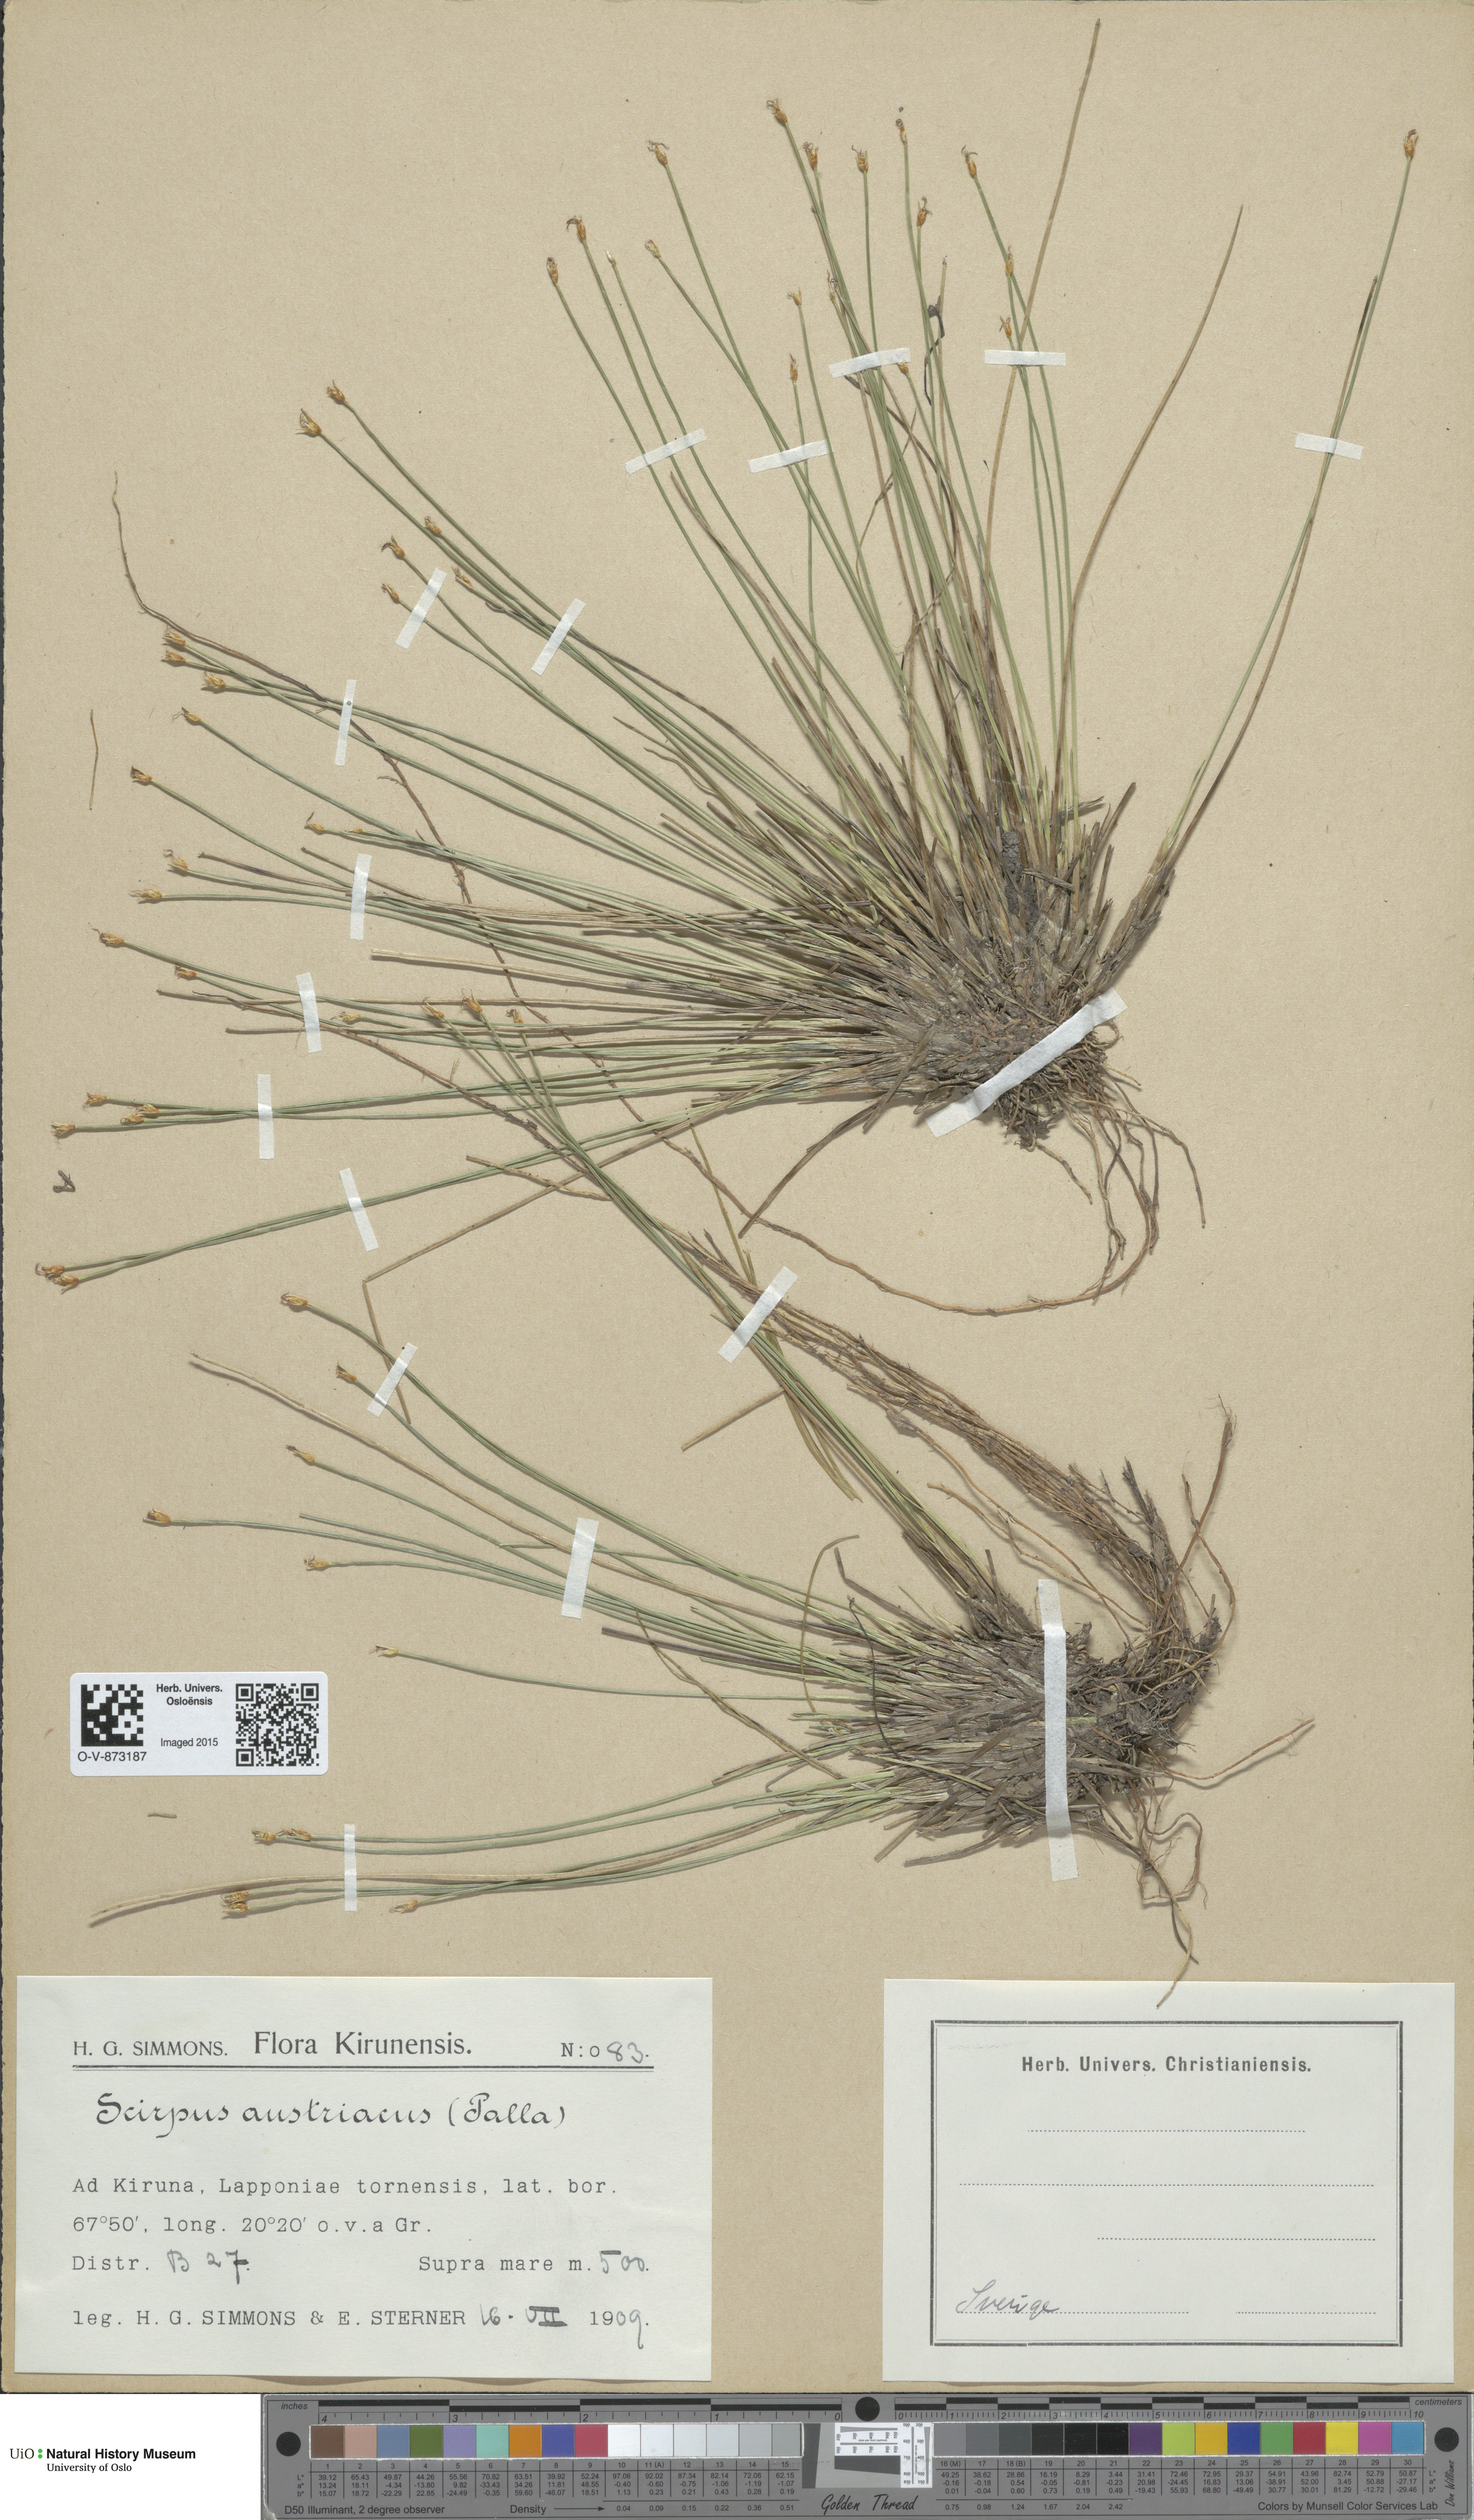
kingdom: Plantae
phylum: Tracheophyta
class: Liliopsida
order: Poales
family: Cyperaceae
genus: Trichophorum
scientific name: Trichophorum cespitosum
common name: Cespitose bulrush
